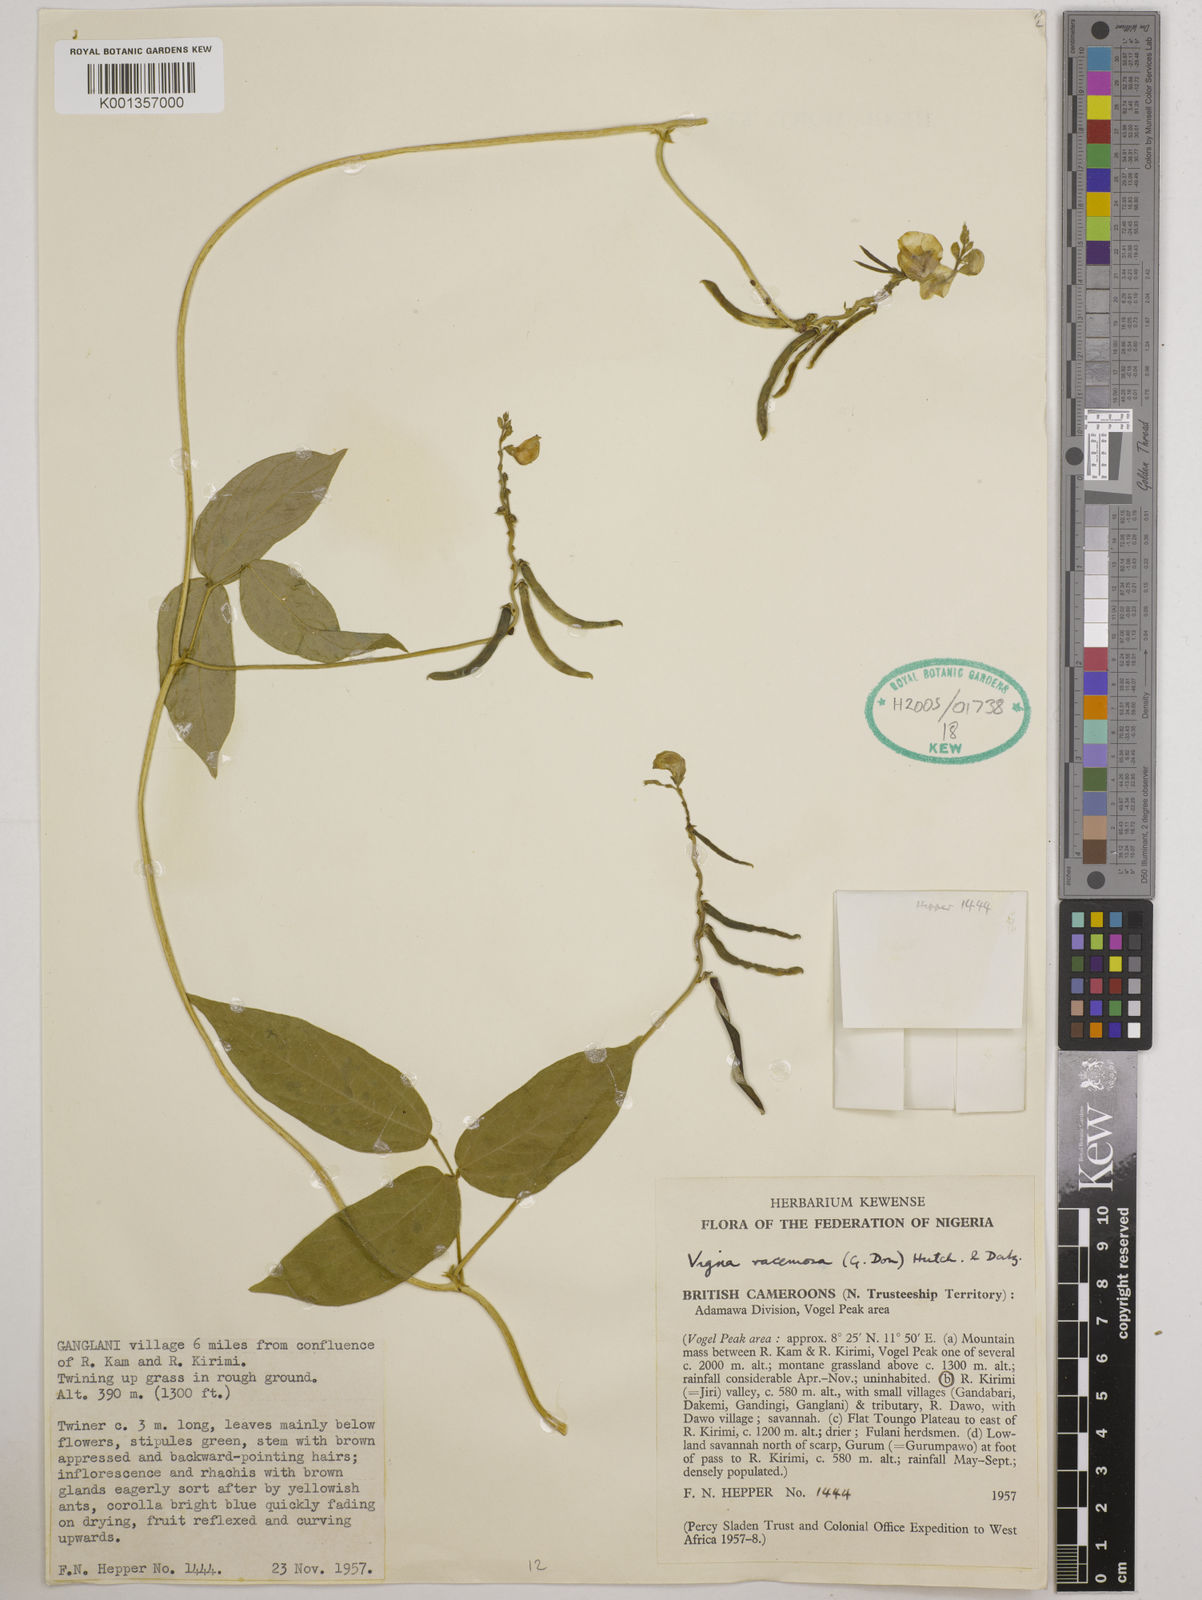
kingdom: Plantae
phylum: Tracheophyta
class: Magnoliopsida
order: Fabales
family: Fabaceae
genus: Vigna
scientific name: Vigna racemosa
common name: Beans not eaten
